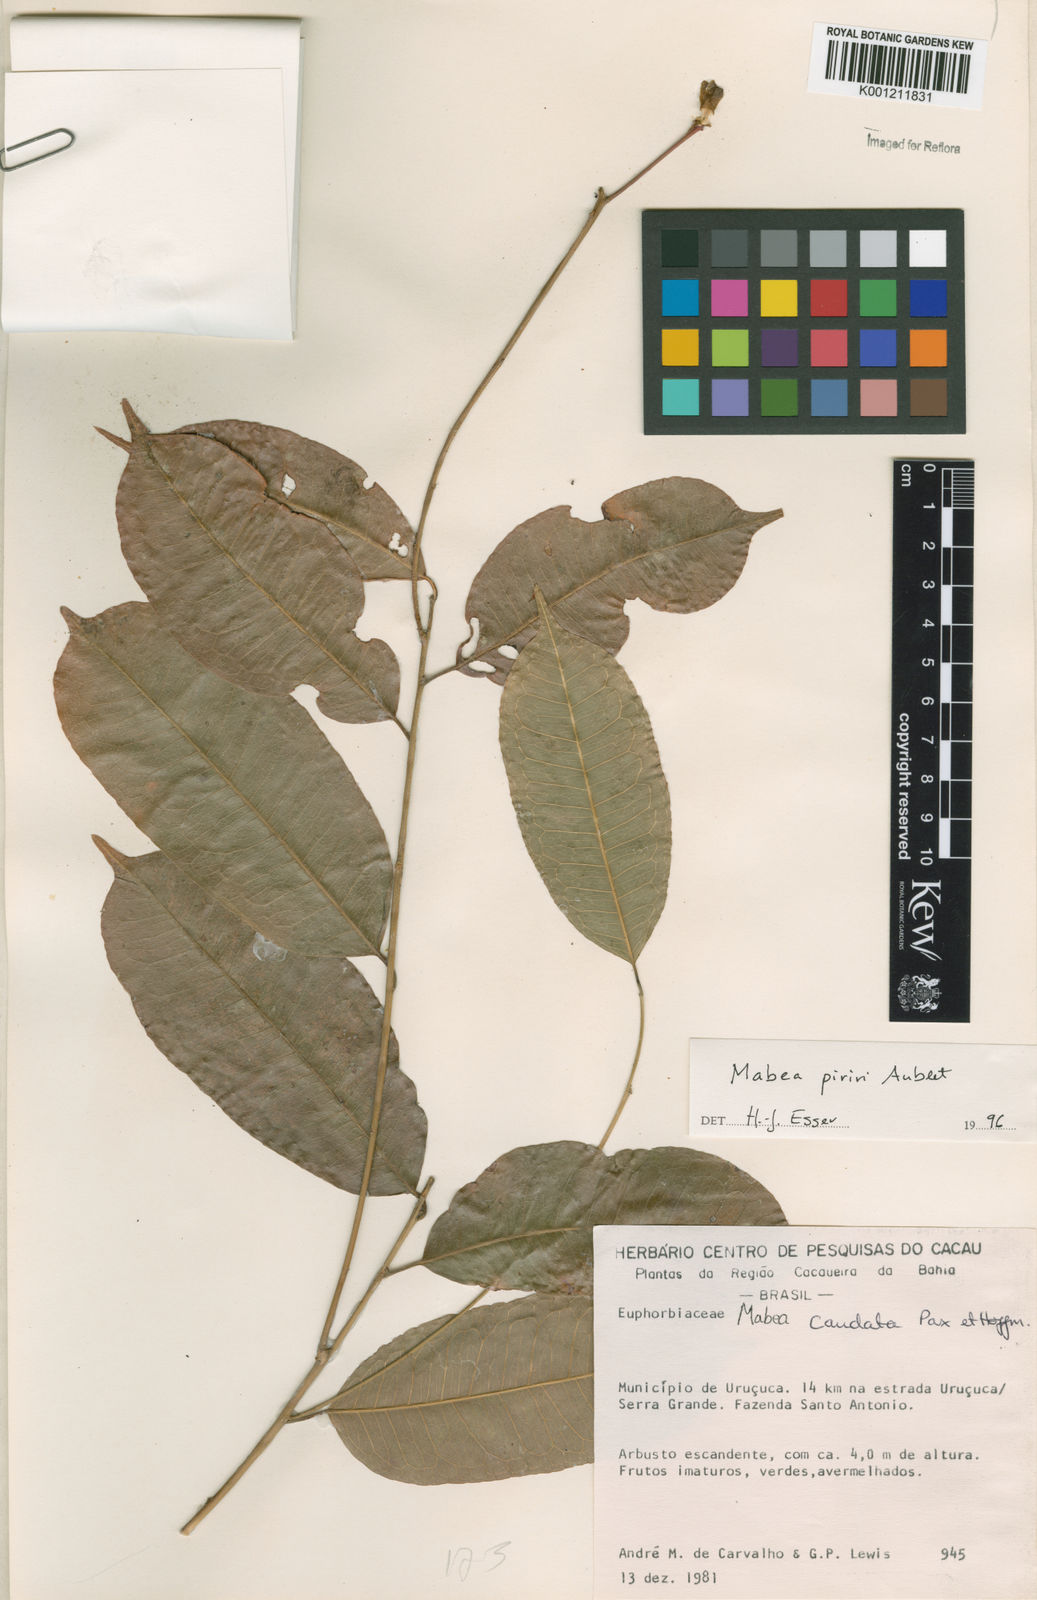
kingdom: Plantae
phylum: Tracheophyta
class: Magnoliopsida
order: Malpighiales
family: Euphorbiaceae
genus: Mabea
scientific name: Mabea piriri
